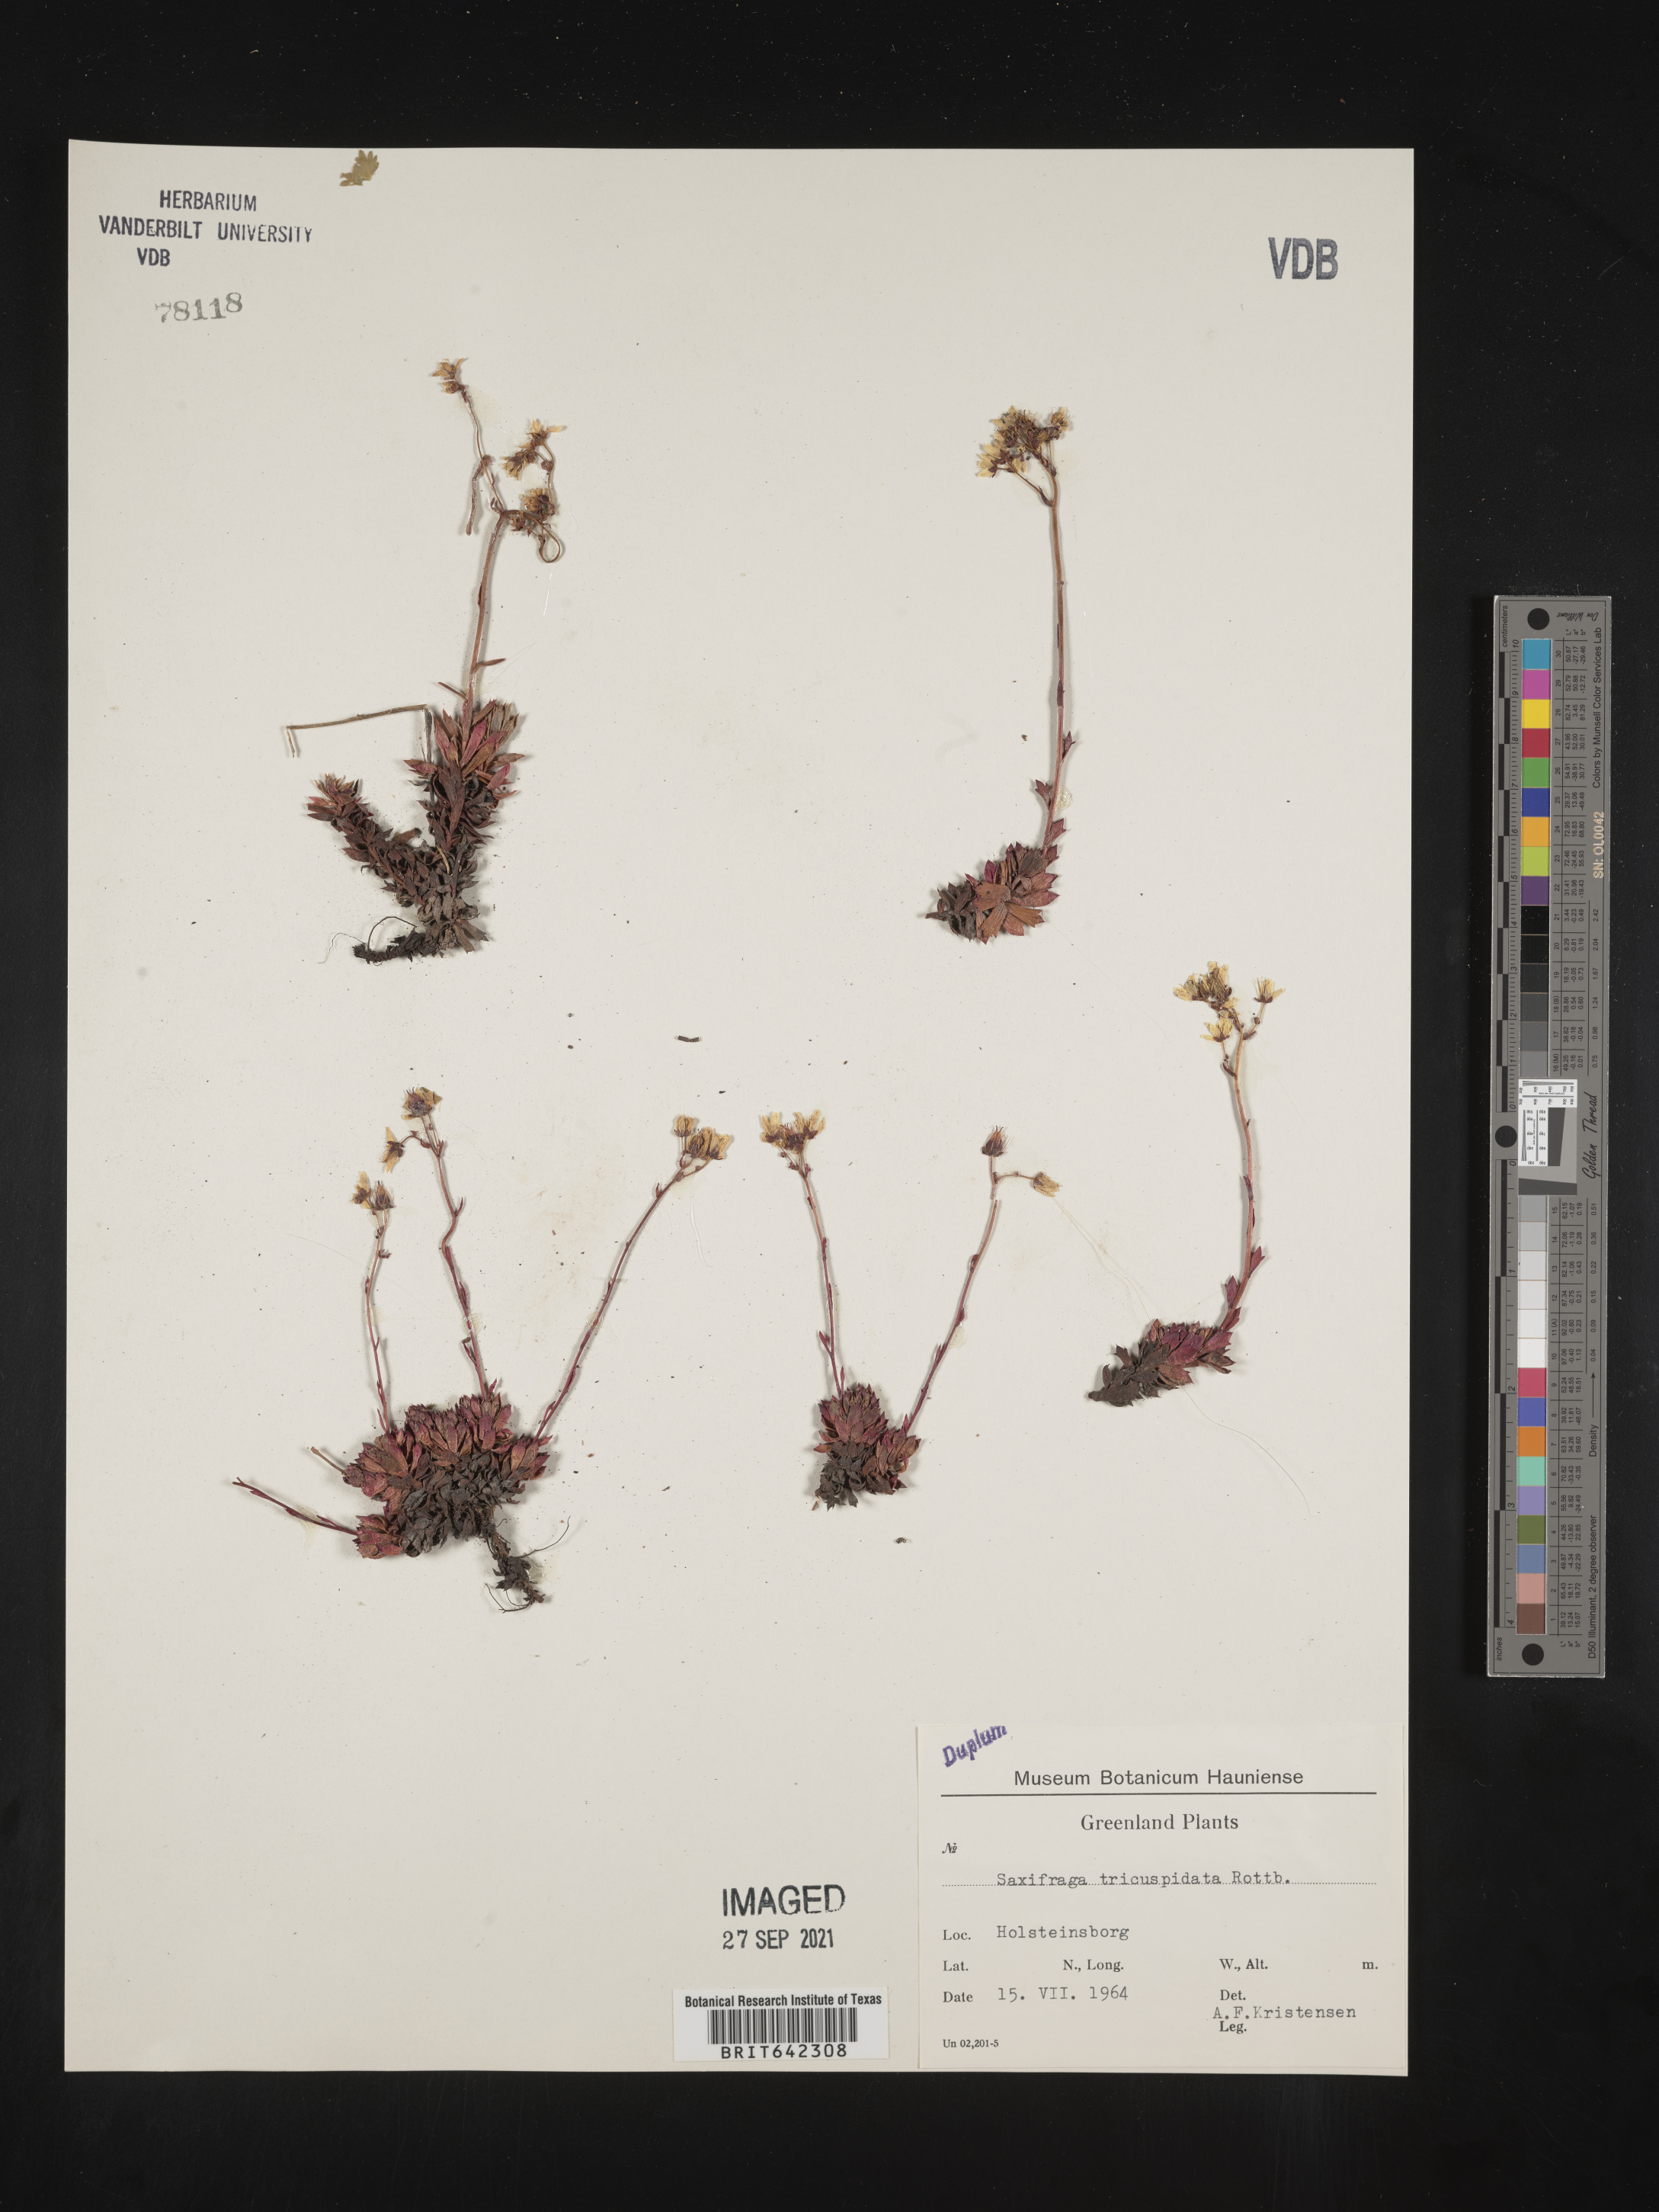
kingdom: Plantae
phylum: Tracheophyta
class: Magnoliopsida
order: Saxifragales
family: Saxifragaceae
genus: Saxifraga
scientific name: Saxifraga
